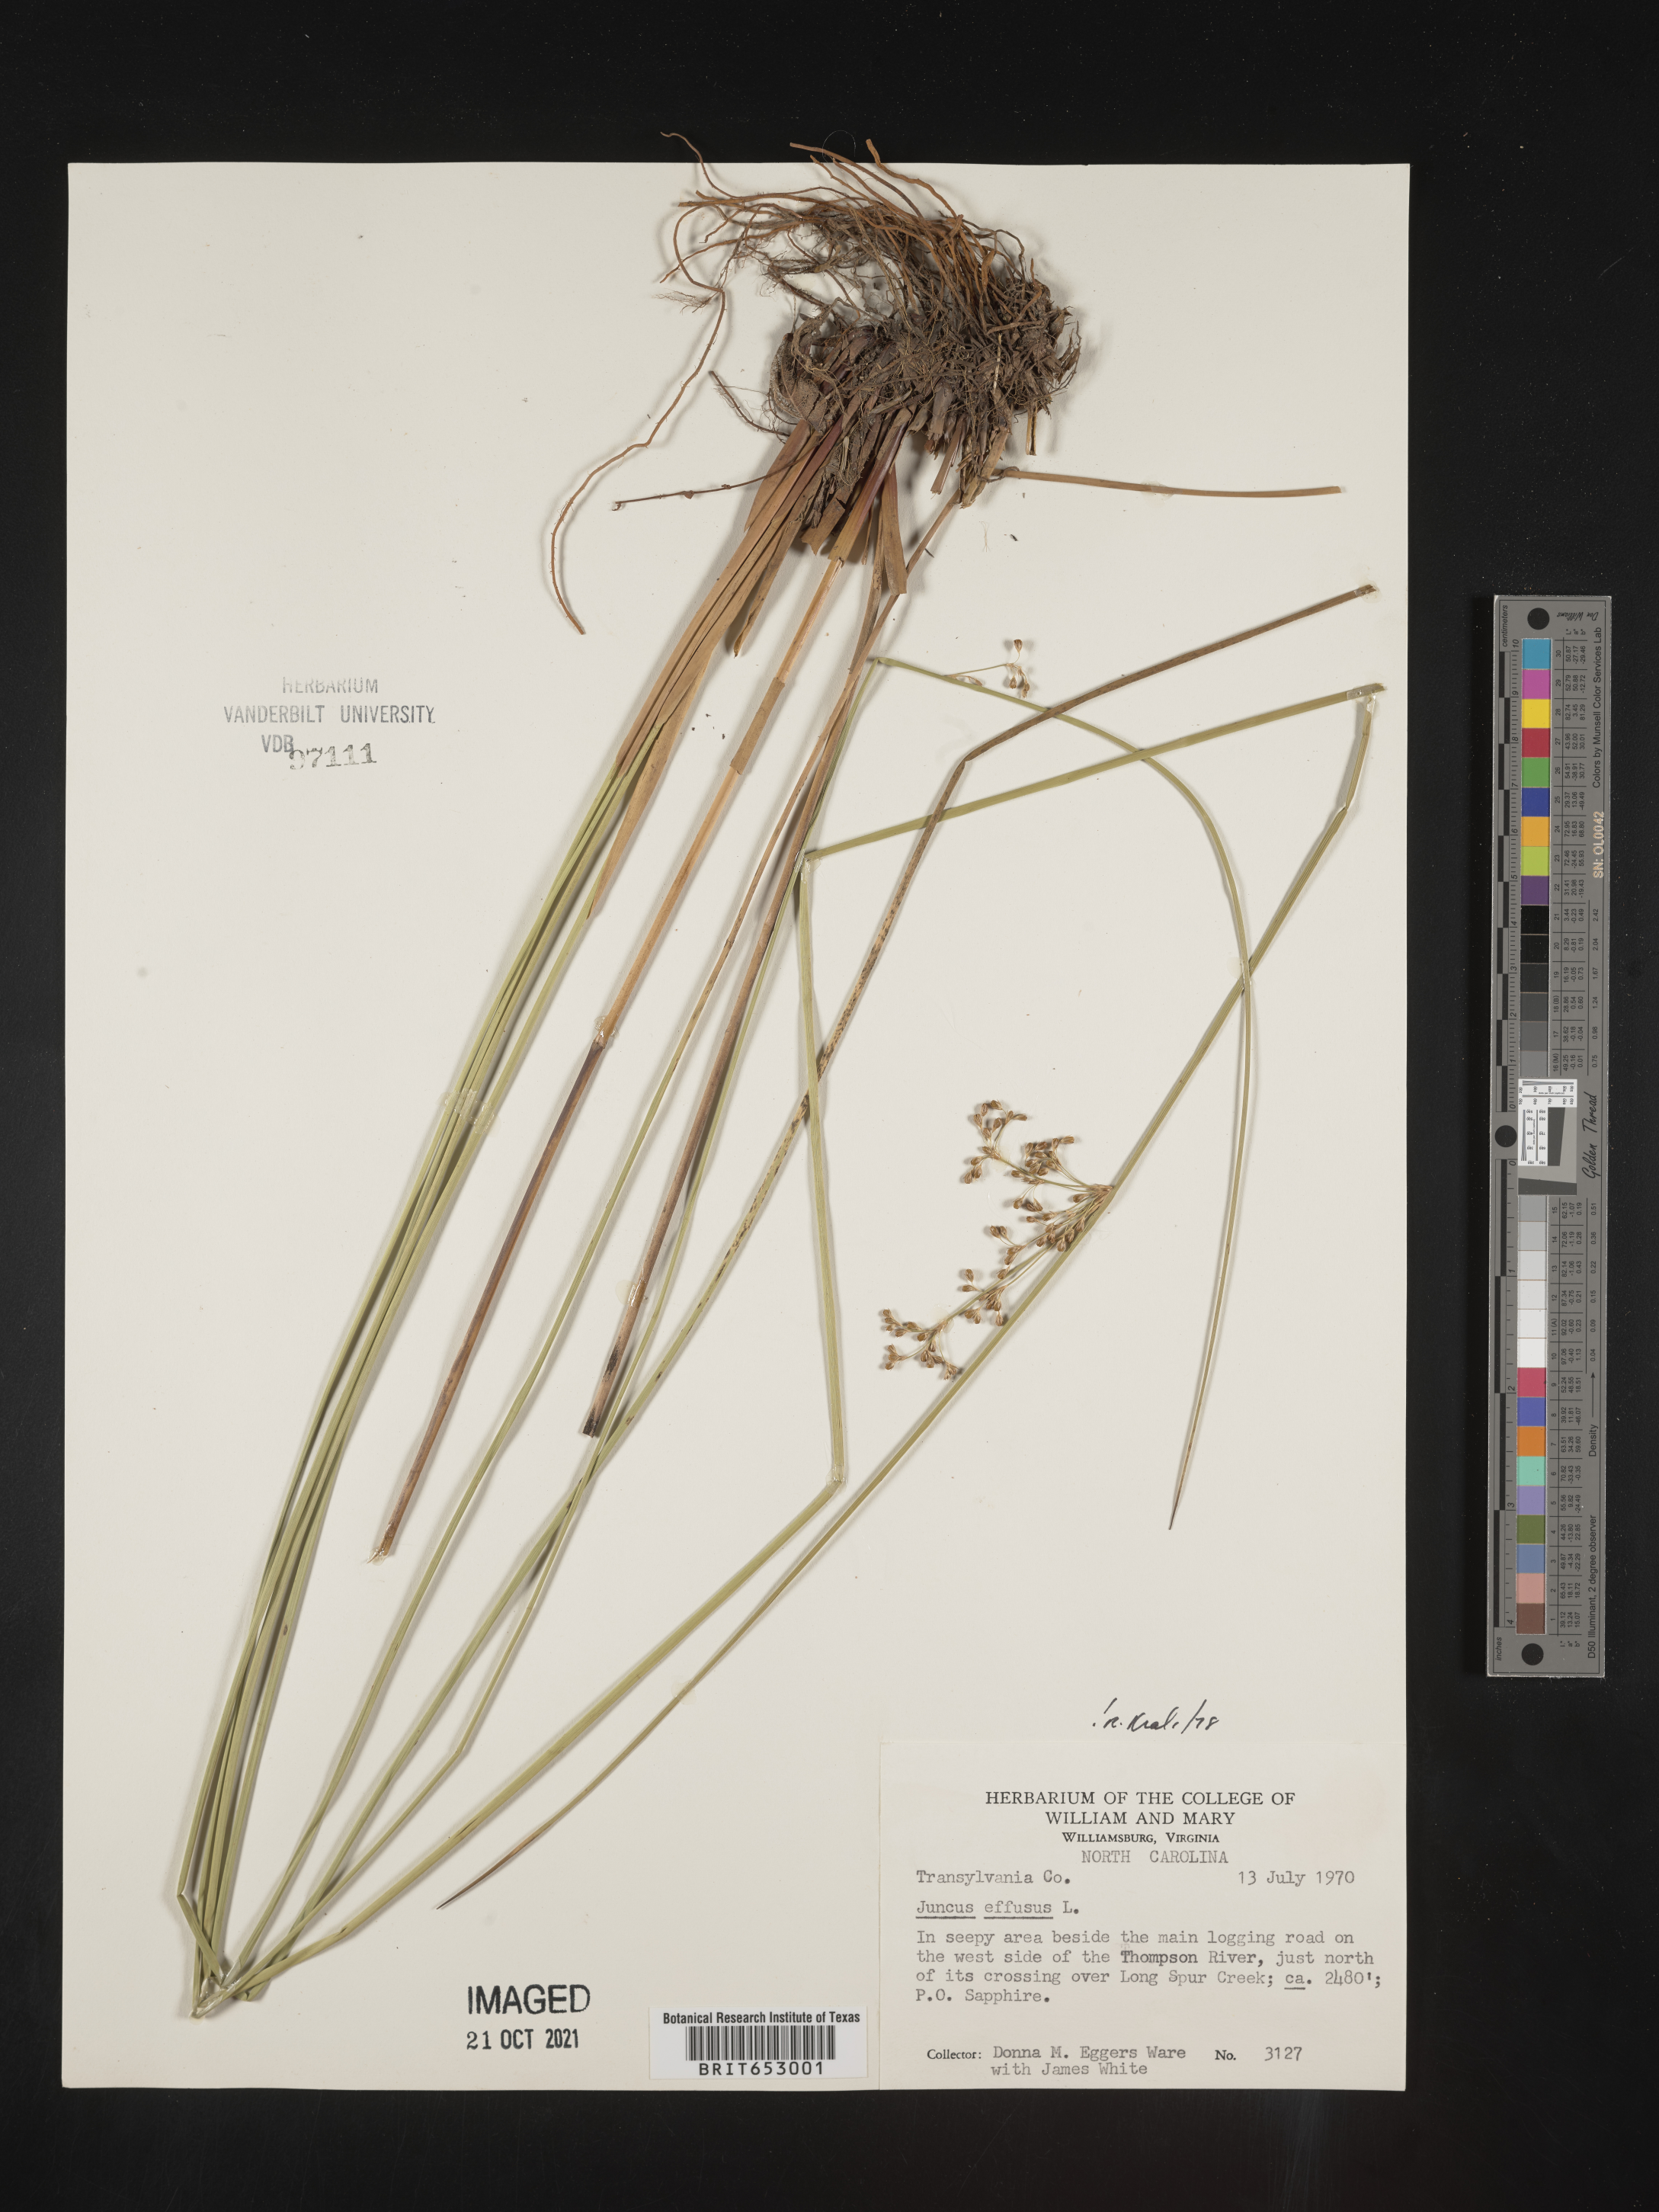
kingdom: Plantae
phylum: Tracheophyta
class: Liliopsida
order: Poales
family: Juncaceae
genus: Juncus
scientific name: Juncus effusus
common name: Soft rush
